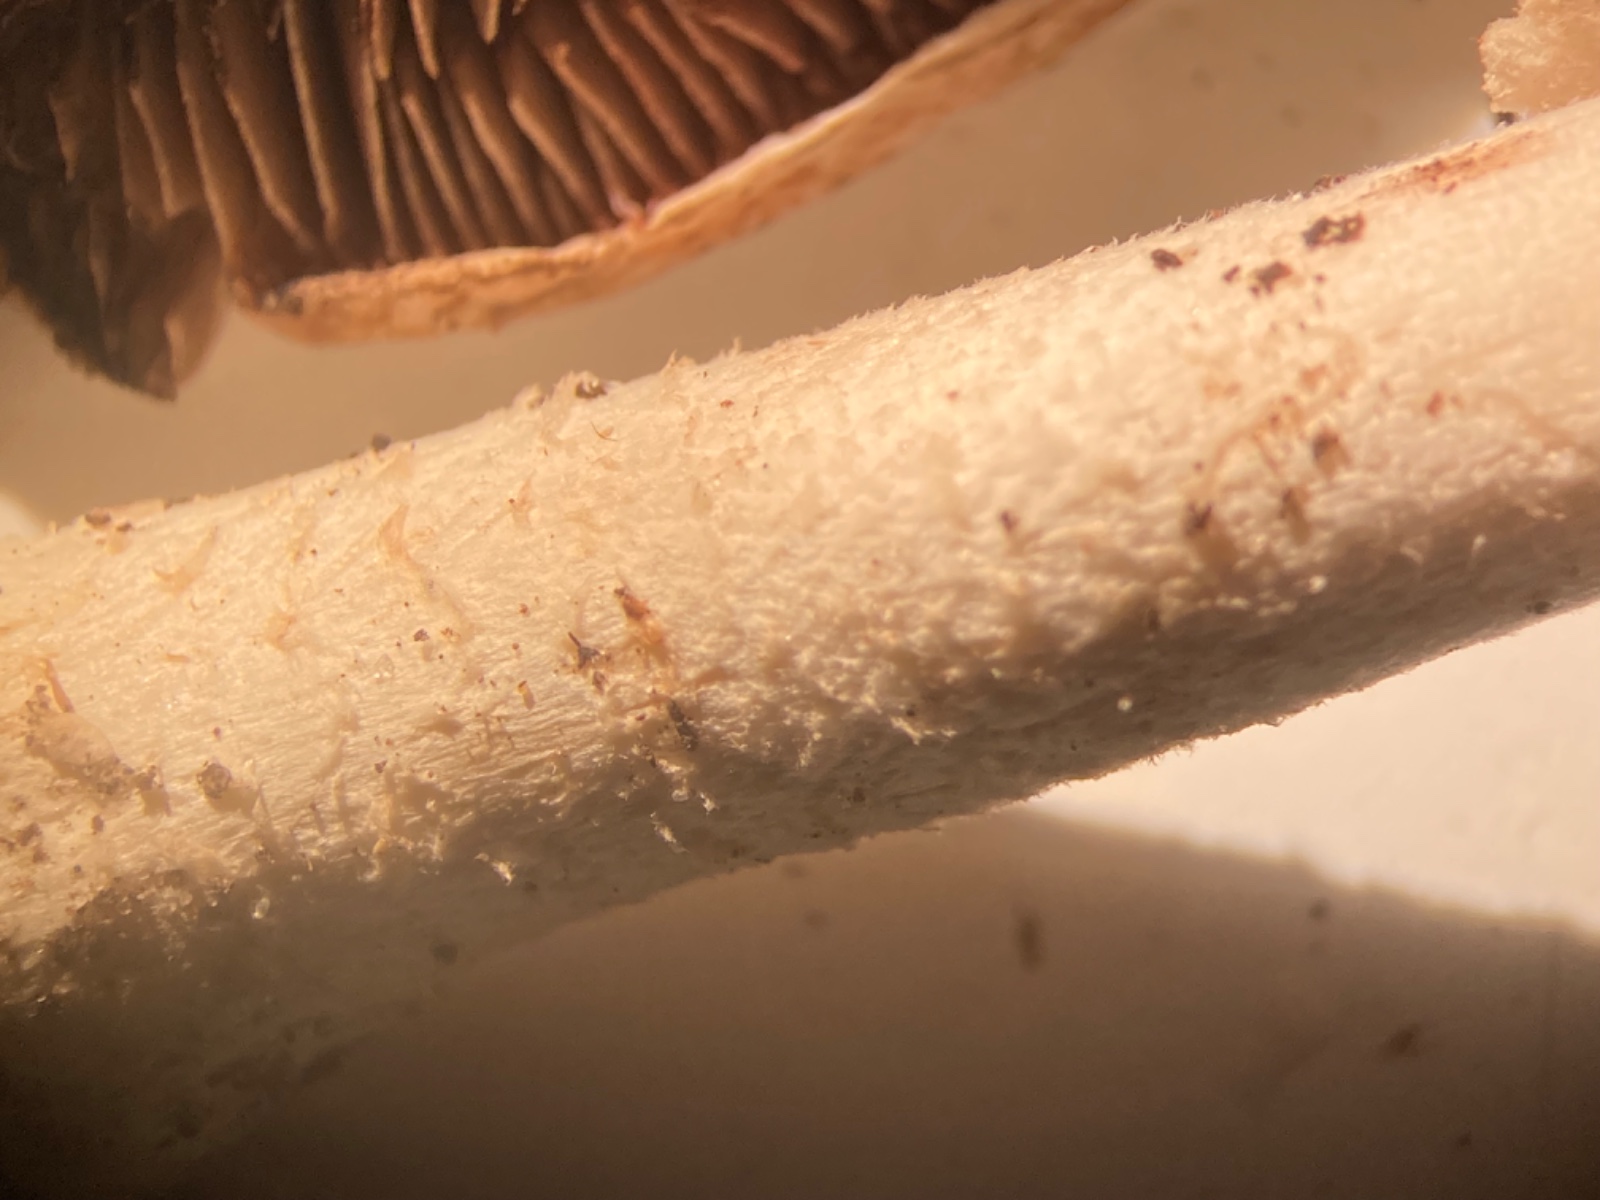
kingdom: Fungi
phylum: Basidiomycota
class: Agaricomycetes
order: Agaricales
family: Agaricaceae
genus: Agaricus
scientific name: Agaricus sylvaticus
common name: lille blod-champignon
